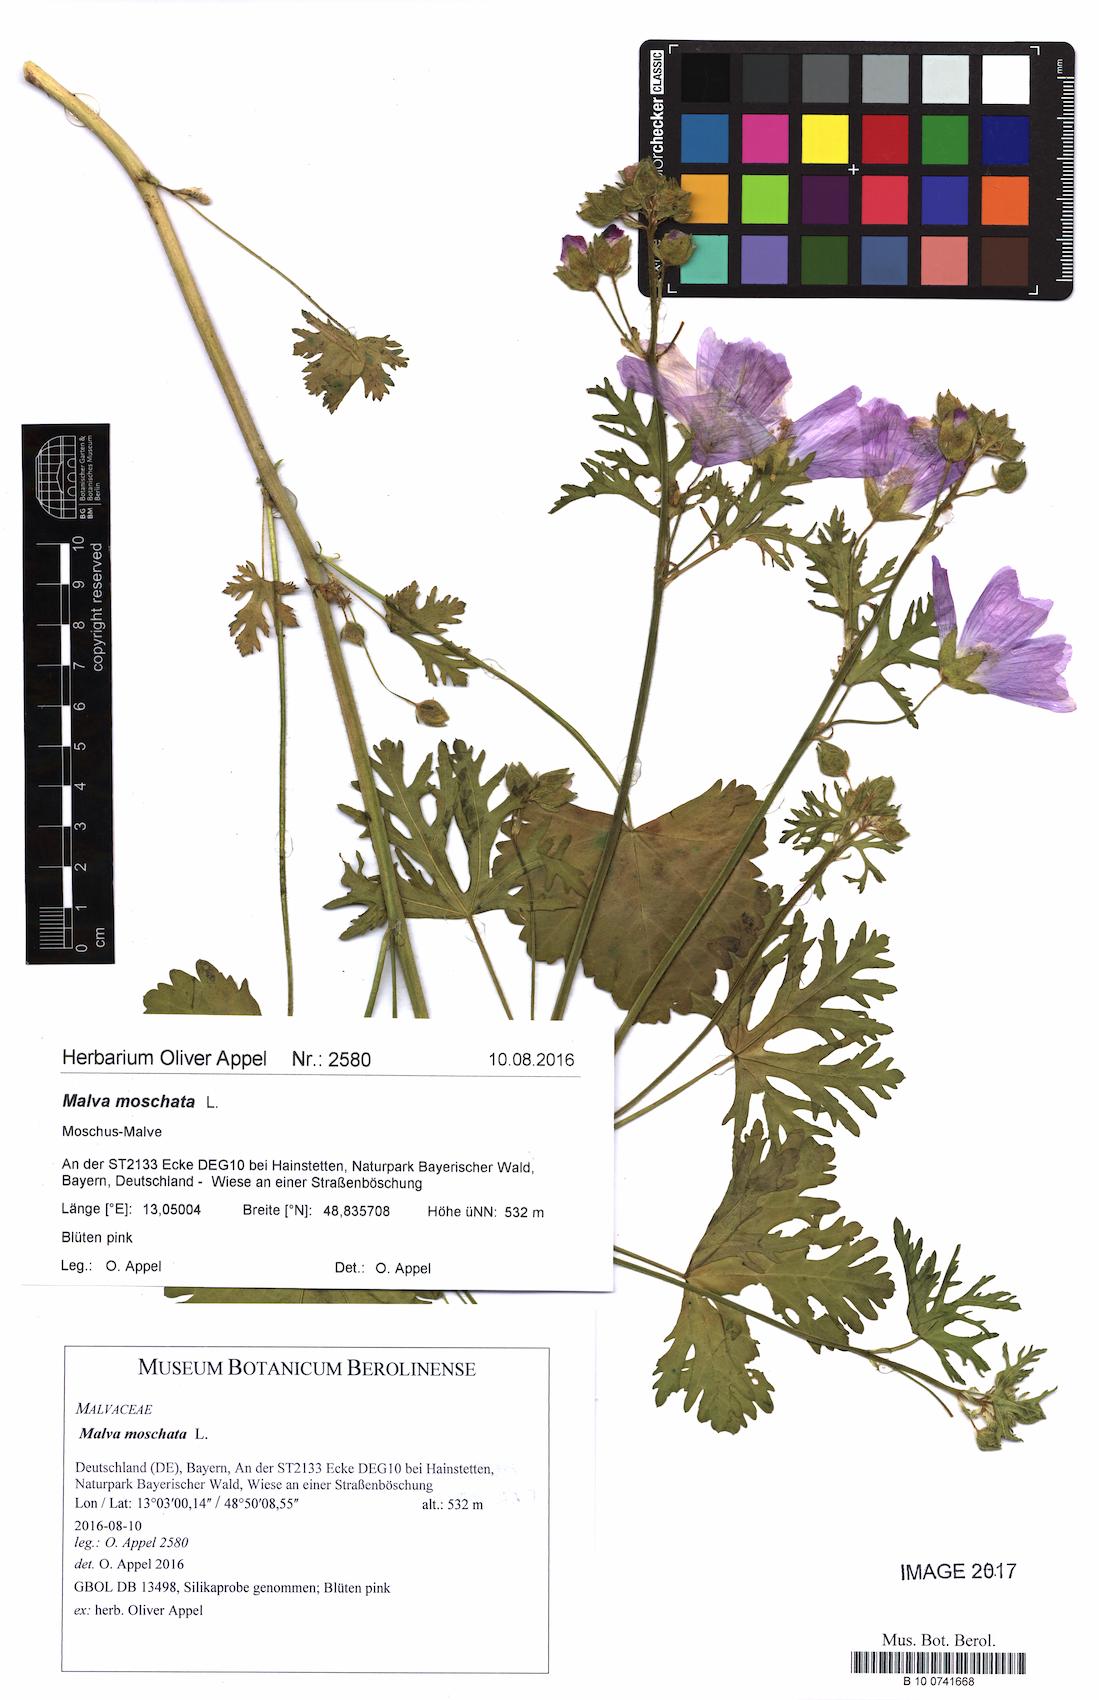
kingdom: Plantae
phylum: Tracheophyta
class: Magnoliopsida
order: Malvales
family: Malvaceae
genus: Malva
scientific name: Malva moschata
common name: Musk mallow
